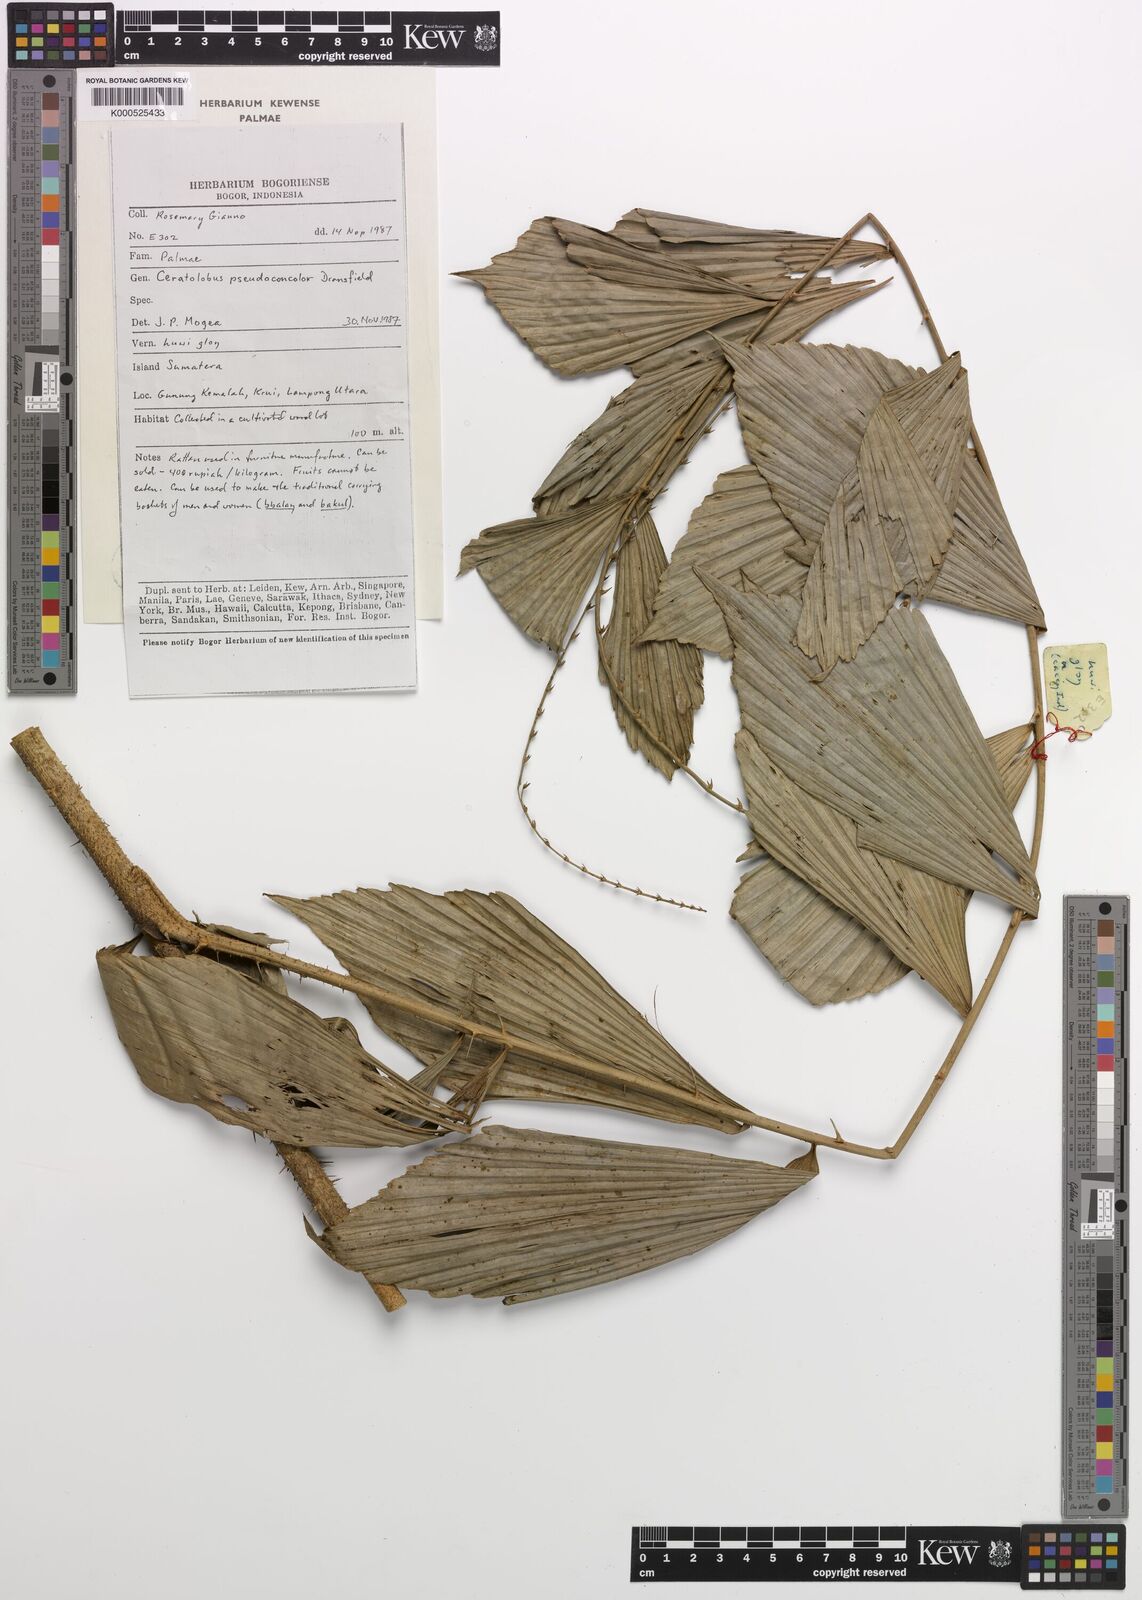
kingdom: Plantae
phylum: Tracheophyta
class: Liliopsida
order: Arecales
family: Arecaceae
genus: Calamus
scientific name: Calamus pseudoconcolor
